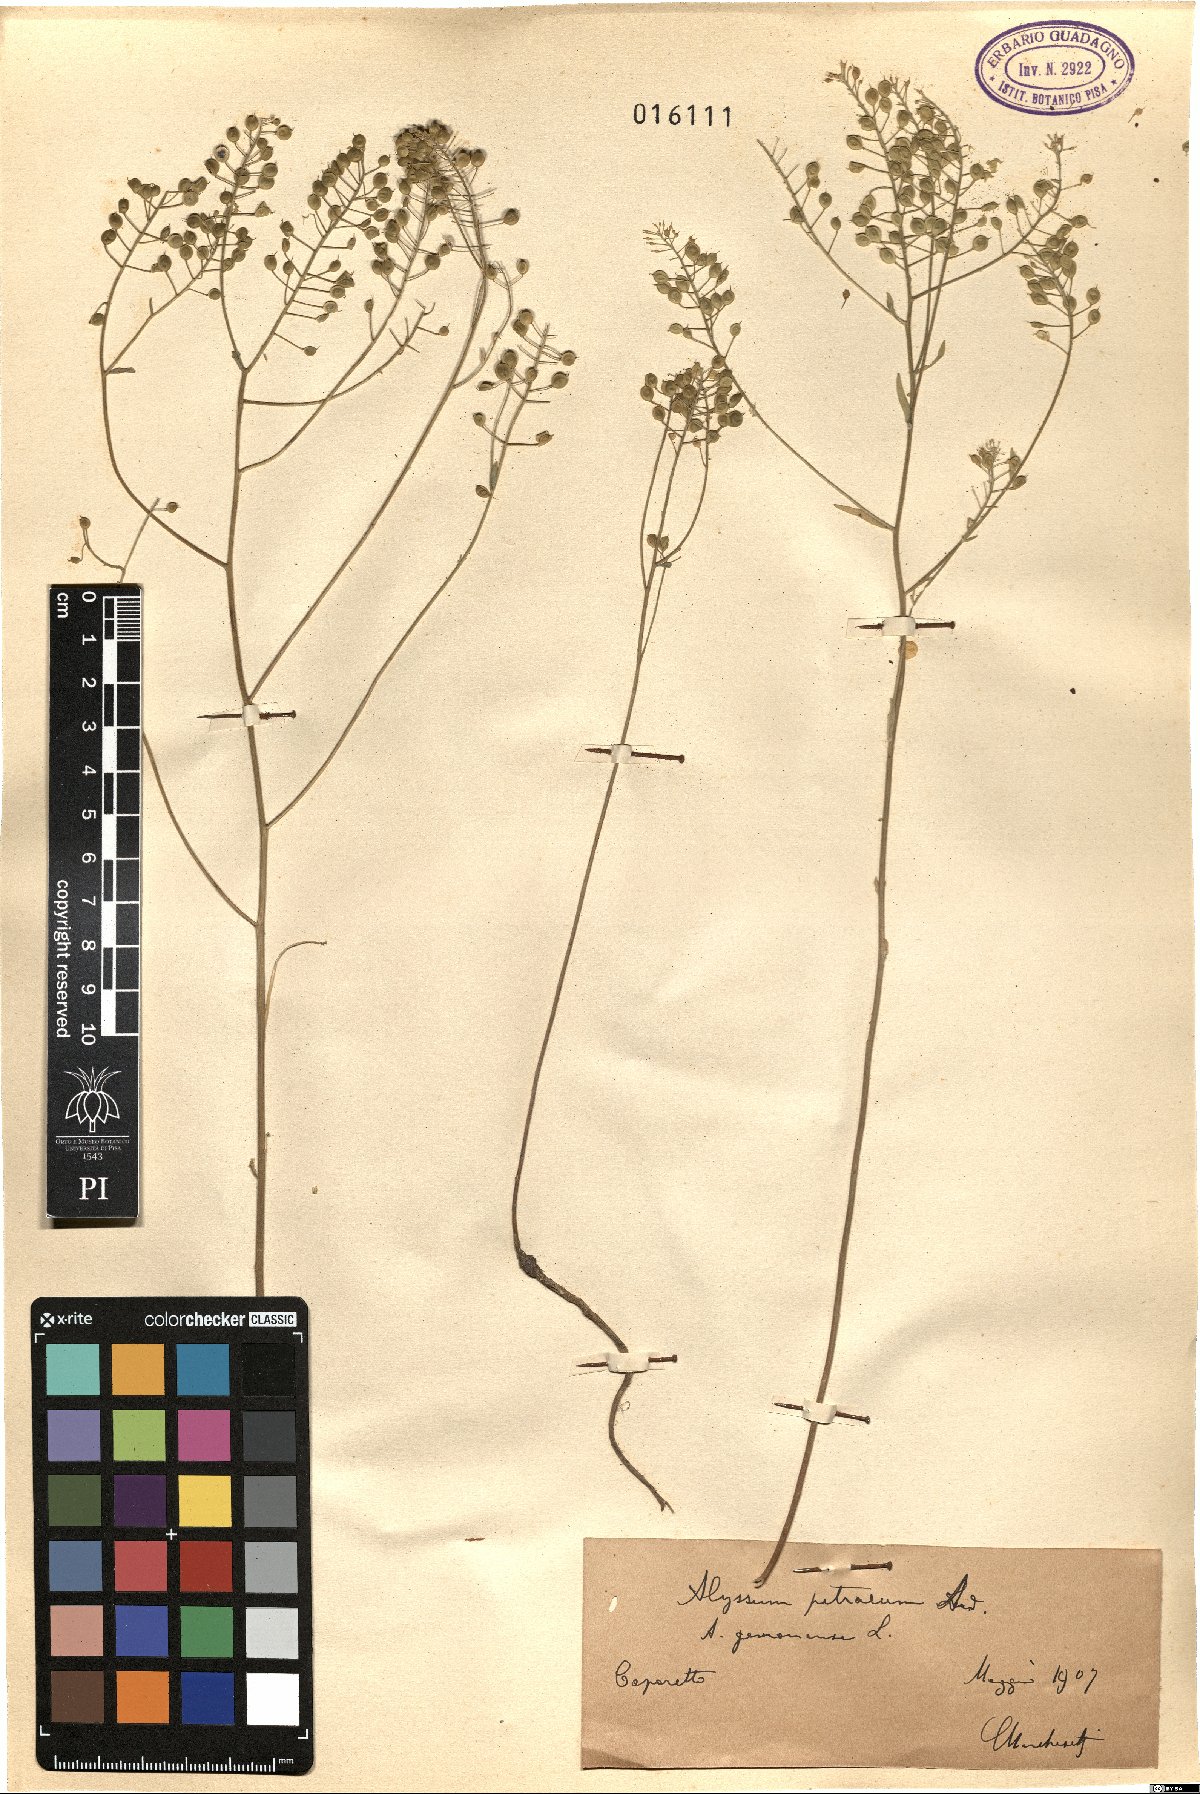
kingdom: Plantae
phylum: Tracheophyta
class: Magnoliopsida
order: Brassicales
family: Brassicaceae
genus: Aurinia
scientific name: Aurinia petraea
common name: Goldentuft
